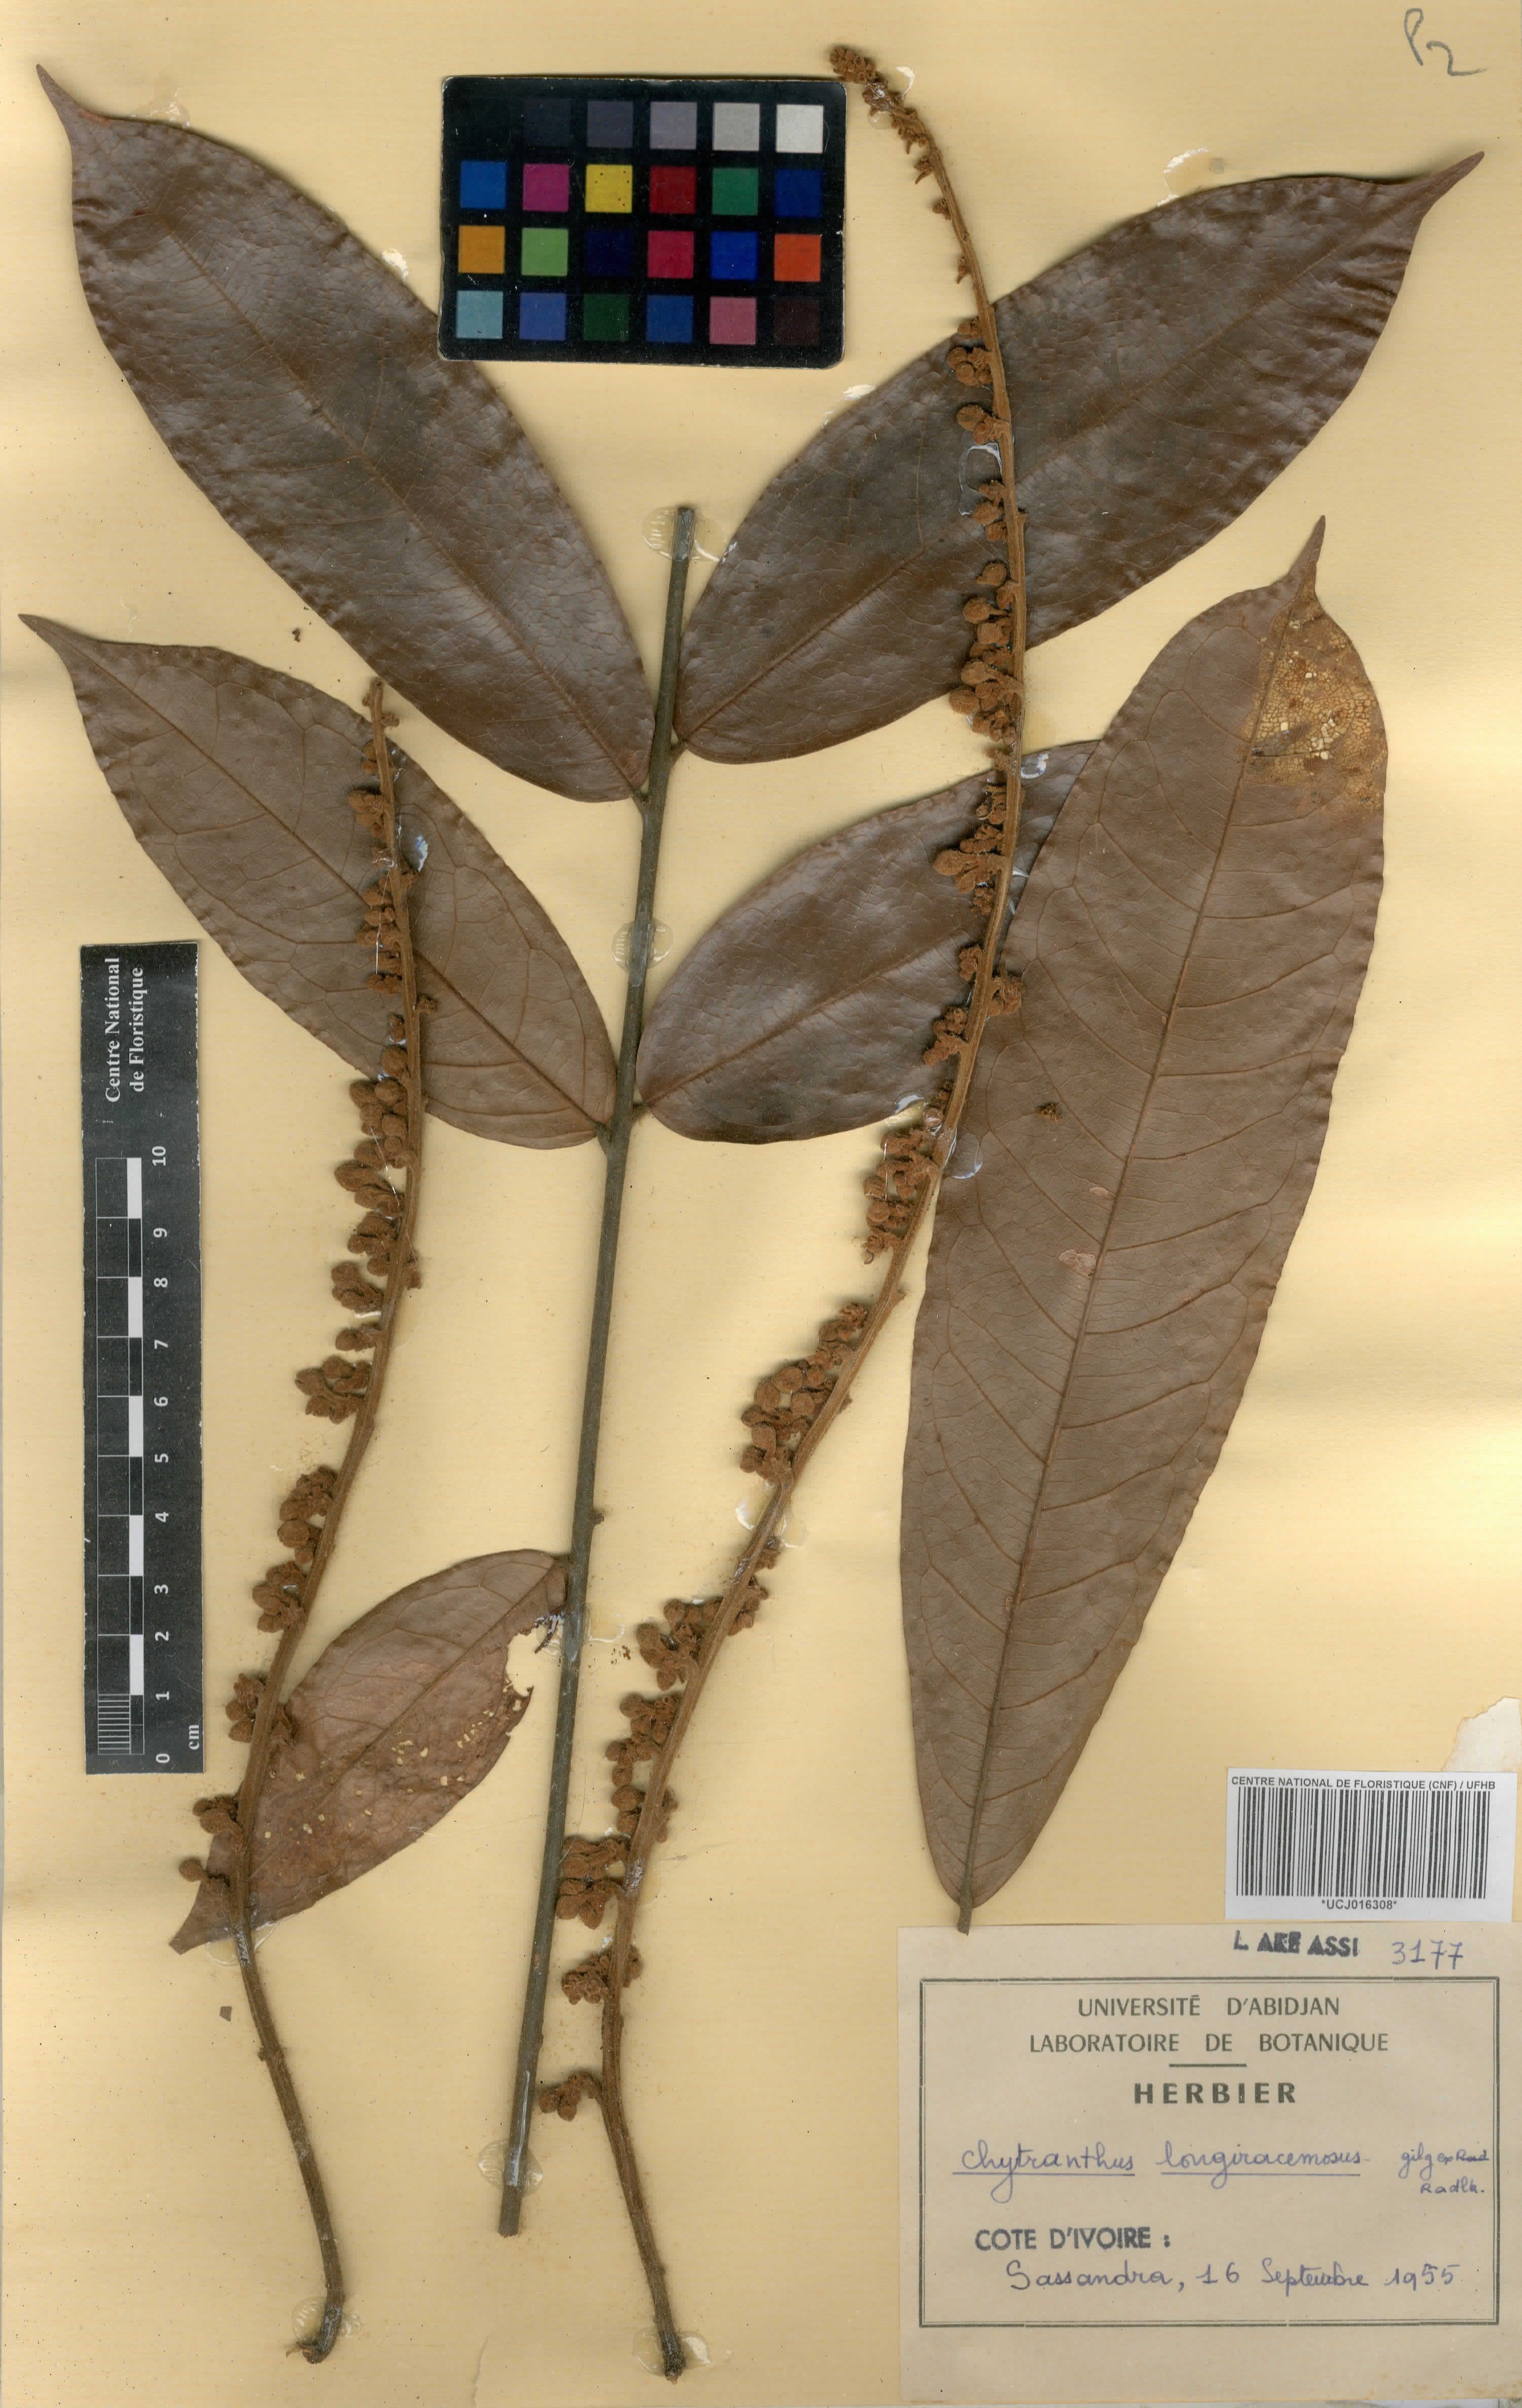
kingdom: Plantae
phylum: Tracheophyta
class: Magnoliopsida
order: Sapindales
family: Sapindaceae
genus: Chytranthus
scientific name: Chytranthus carneus
